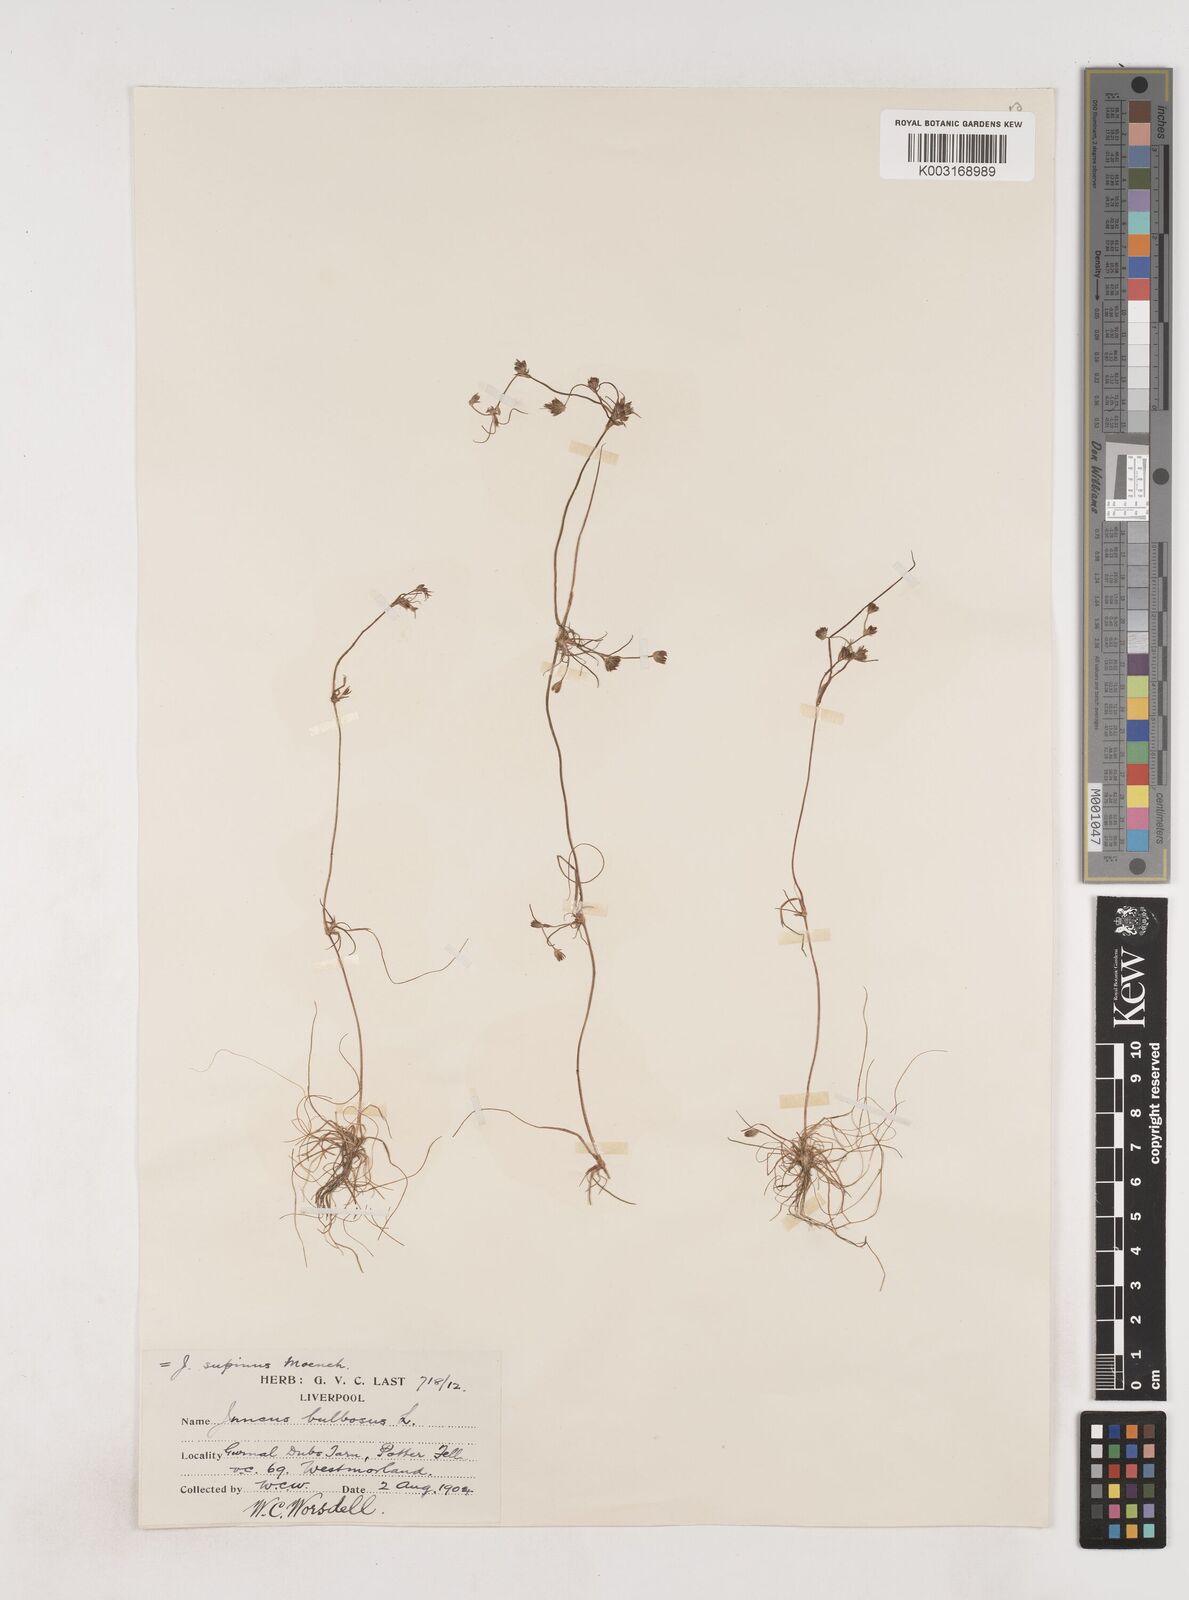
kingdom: Plantae
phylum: Tracheophyta
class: Liliopsida
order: Poales
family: Juncaceae
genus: Juncus
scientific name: Juncus bulbosus
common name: Bulbous rush
